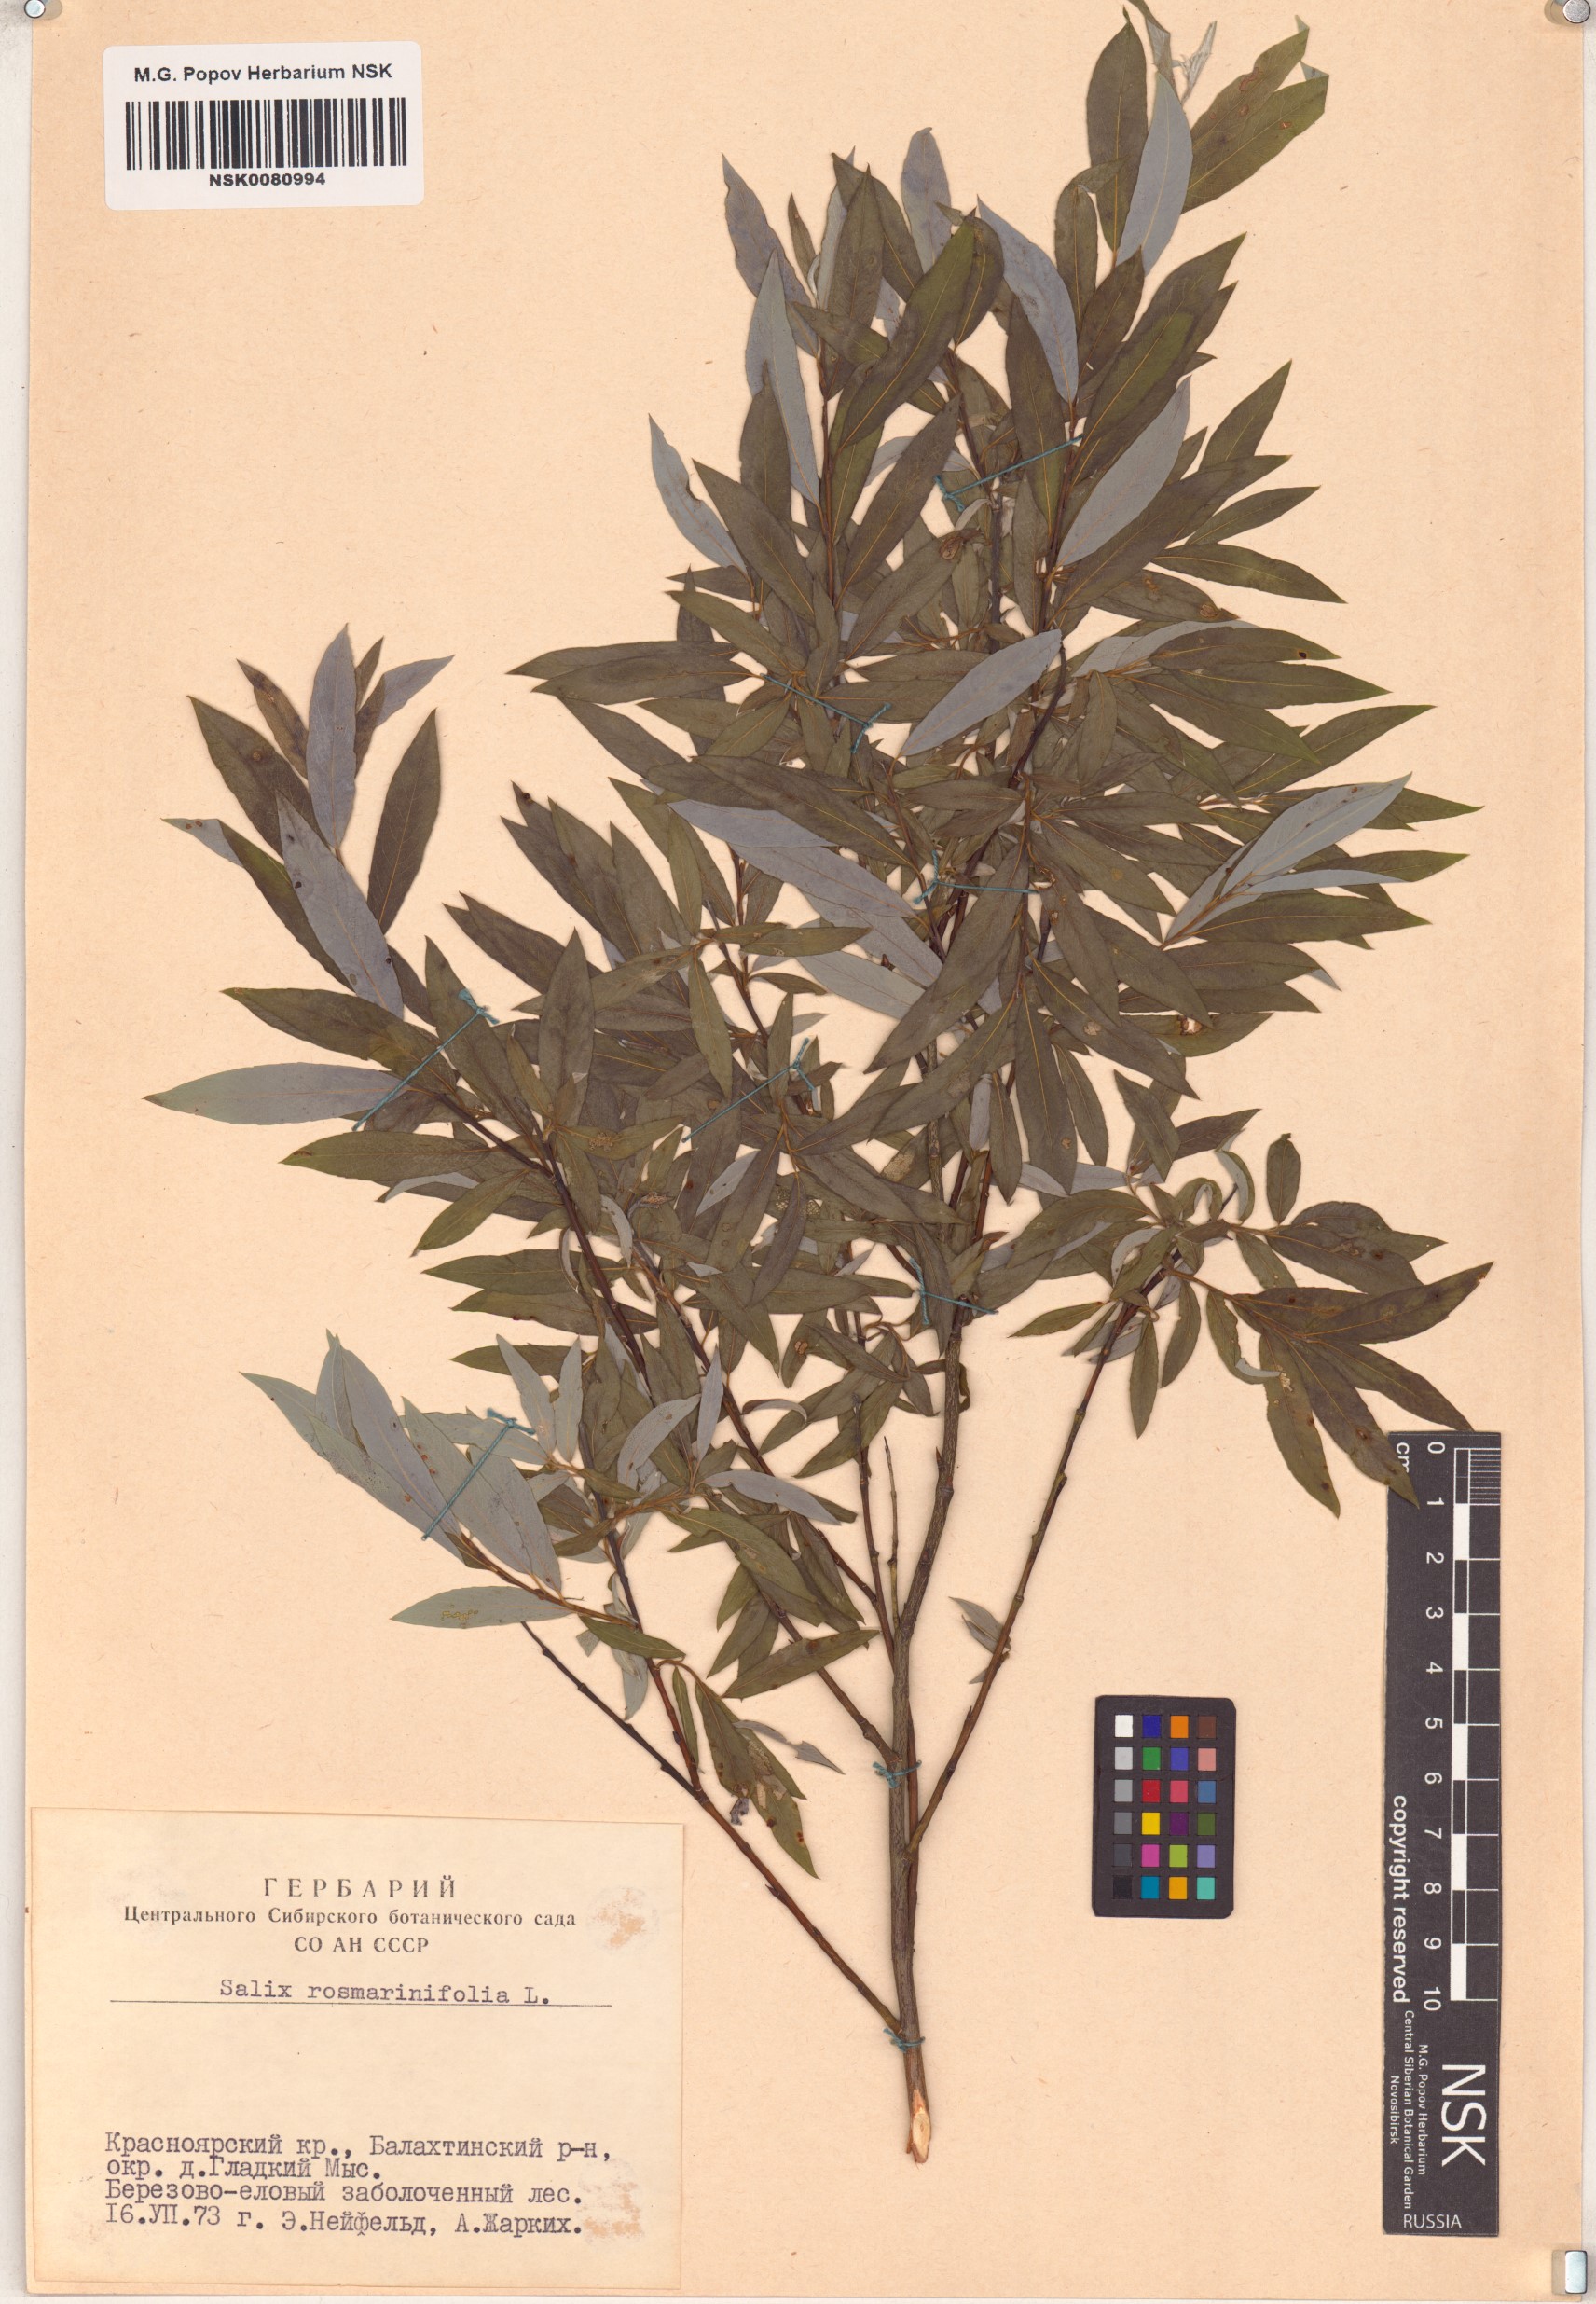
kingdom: Plantae
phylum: Tracheophyta
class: Magnoliopsida
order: Malpighiales
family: Salicaceae
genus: Salix
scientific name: Salix rosmarinifolia
